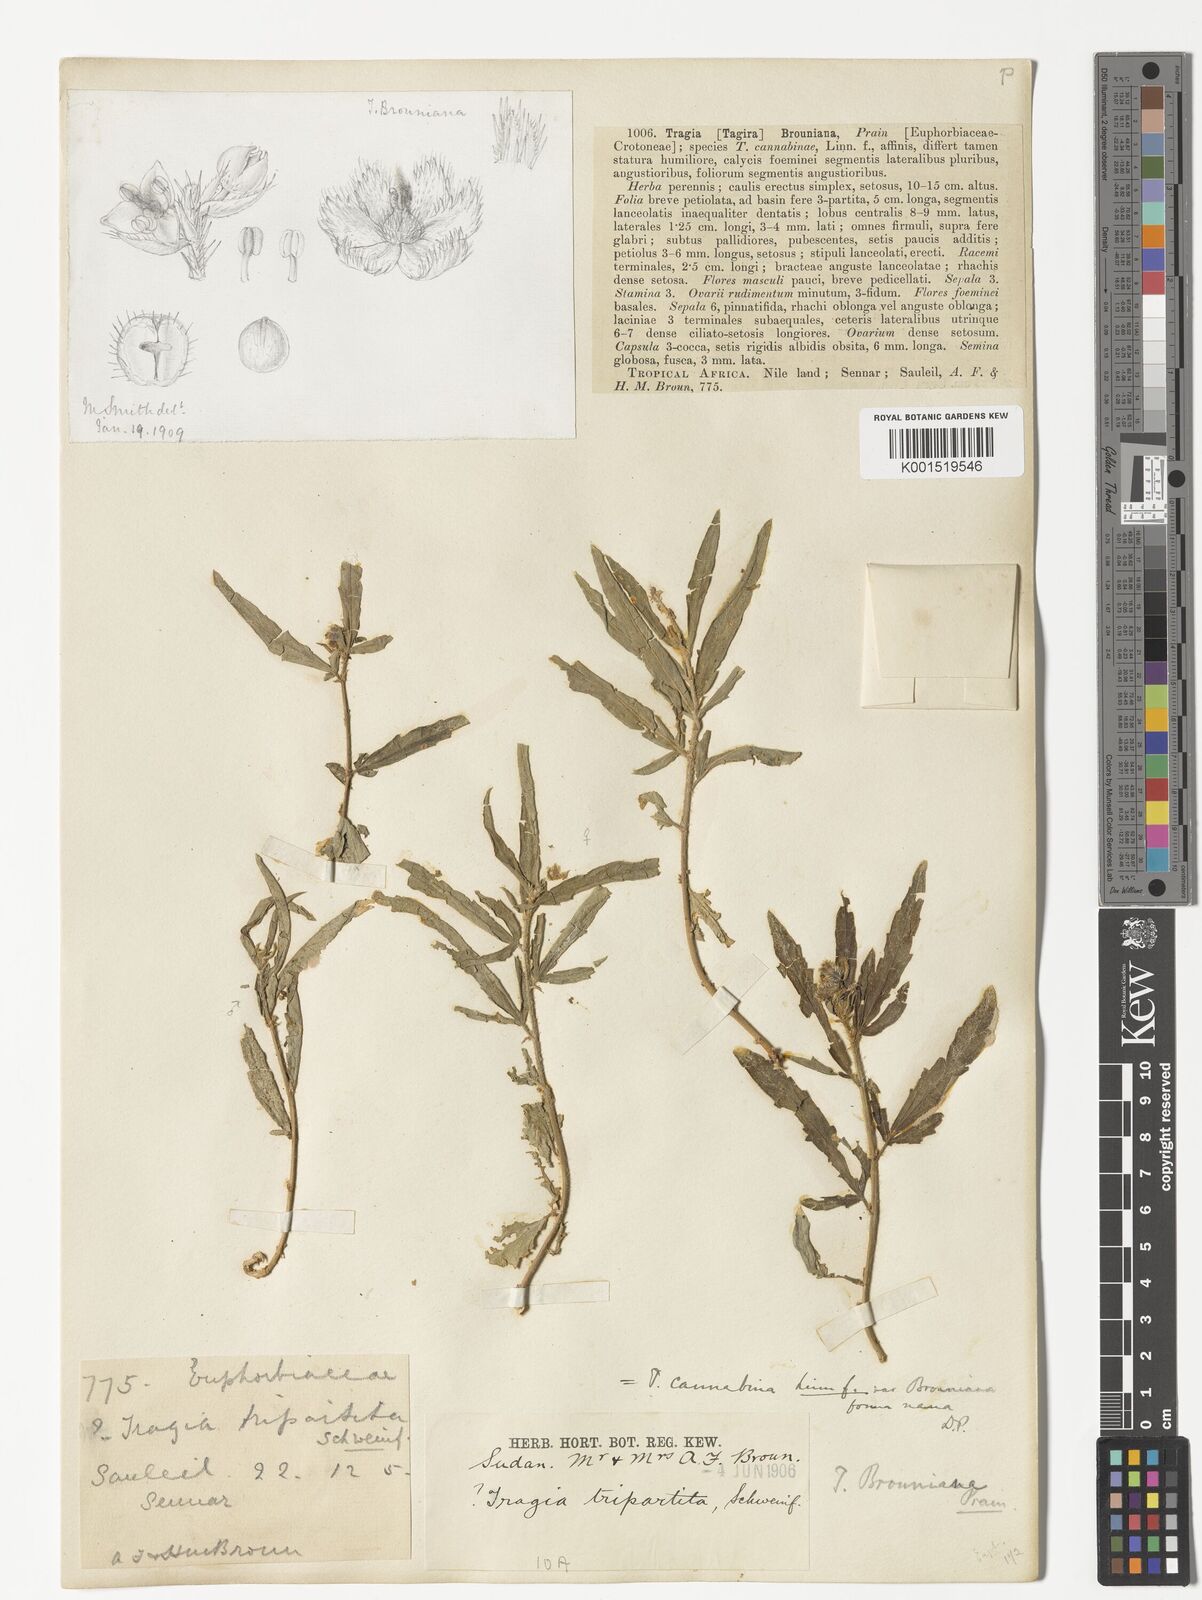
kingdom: Plantae
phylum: Tracheophyta
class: Magnoliopsida
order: Malpighiales
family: Euphorbiaceae
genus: Tragia
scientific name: Tragia tripartita
